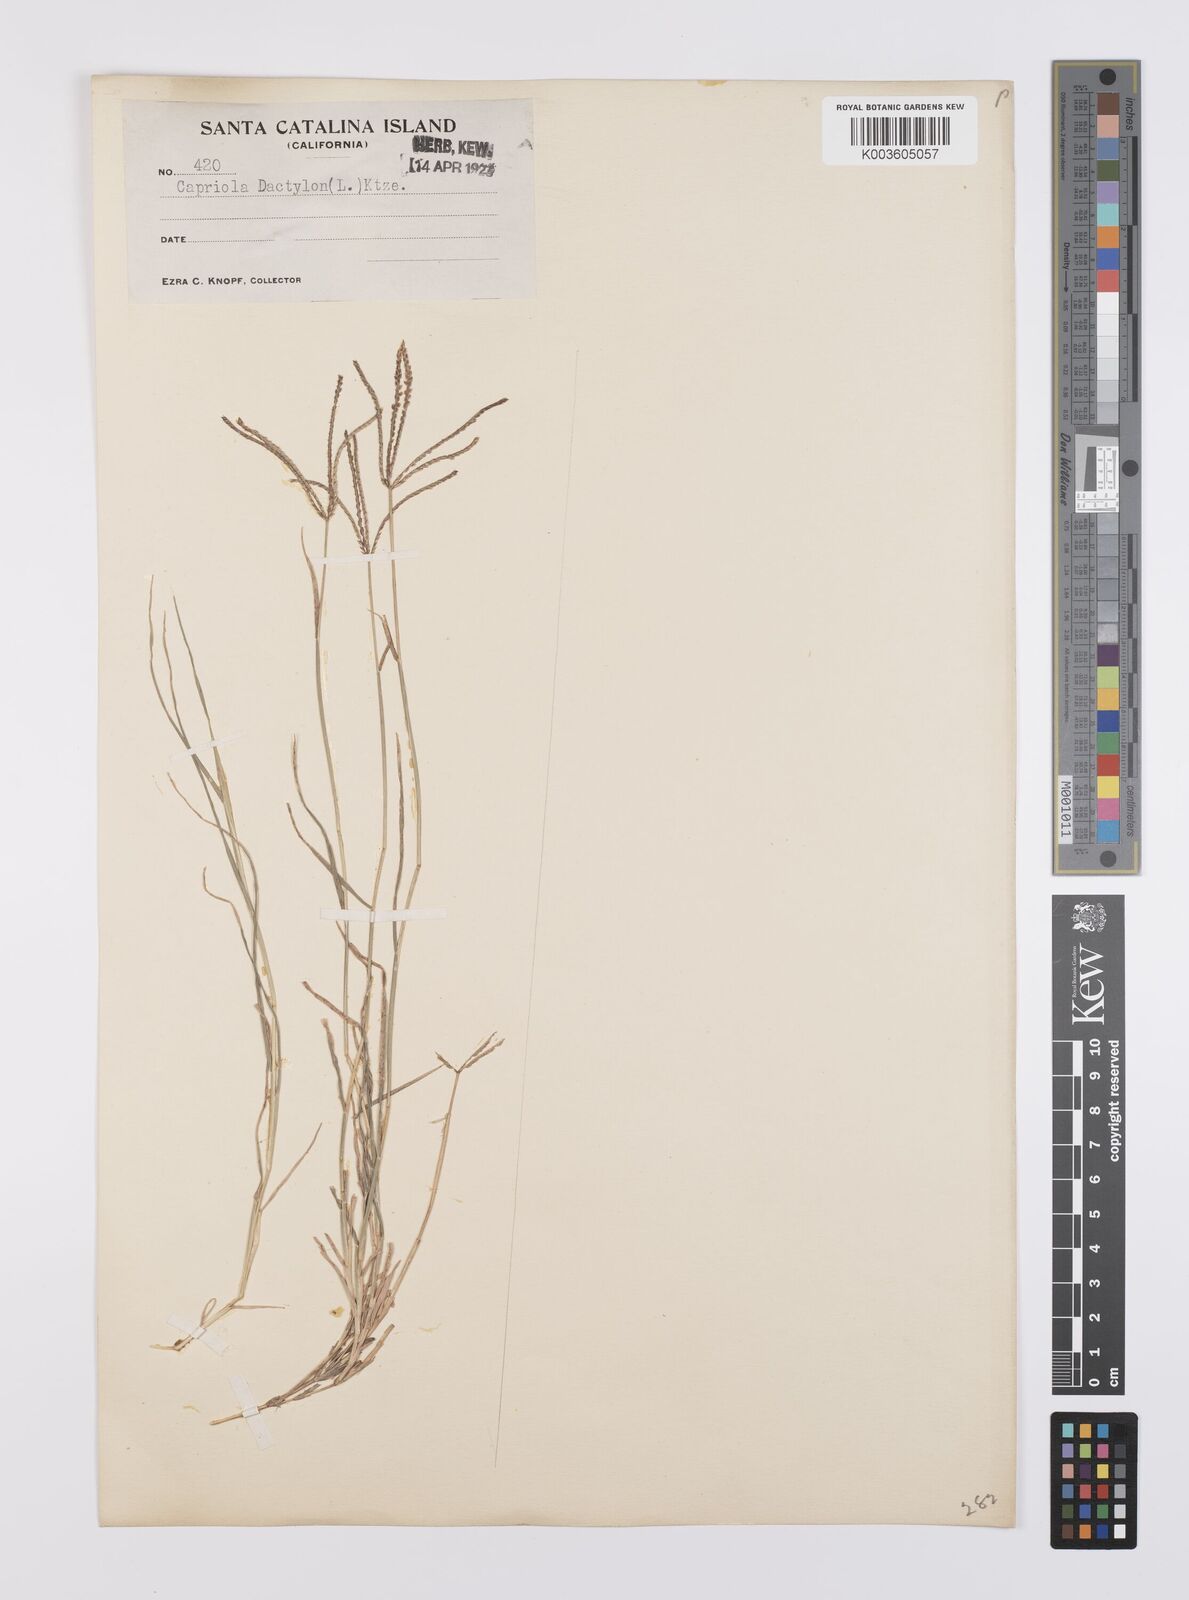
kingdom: Plantae
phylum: Tracheophyta
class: Liliopsida
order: Poales
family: Poaceae
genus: Cynodon
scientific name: Cynodon dactylon
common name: Bermuda grass
